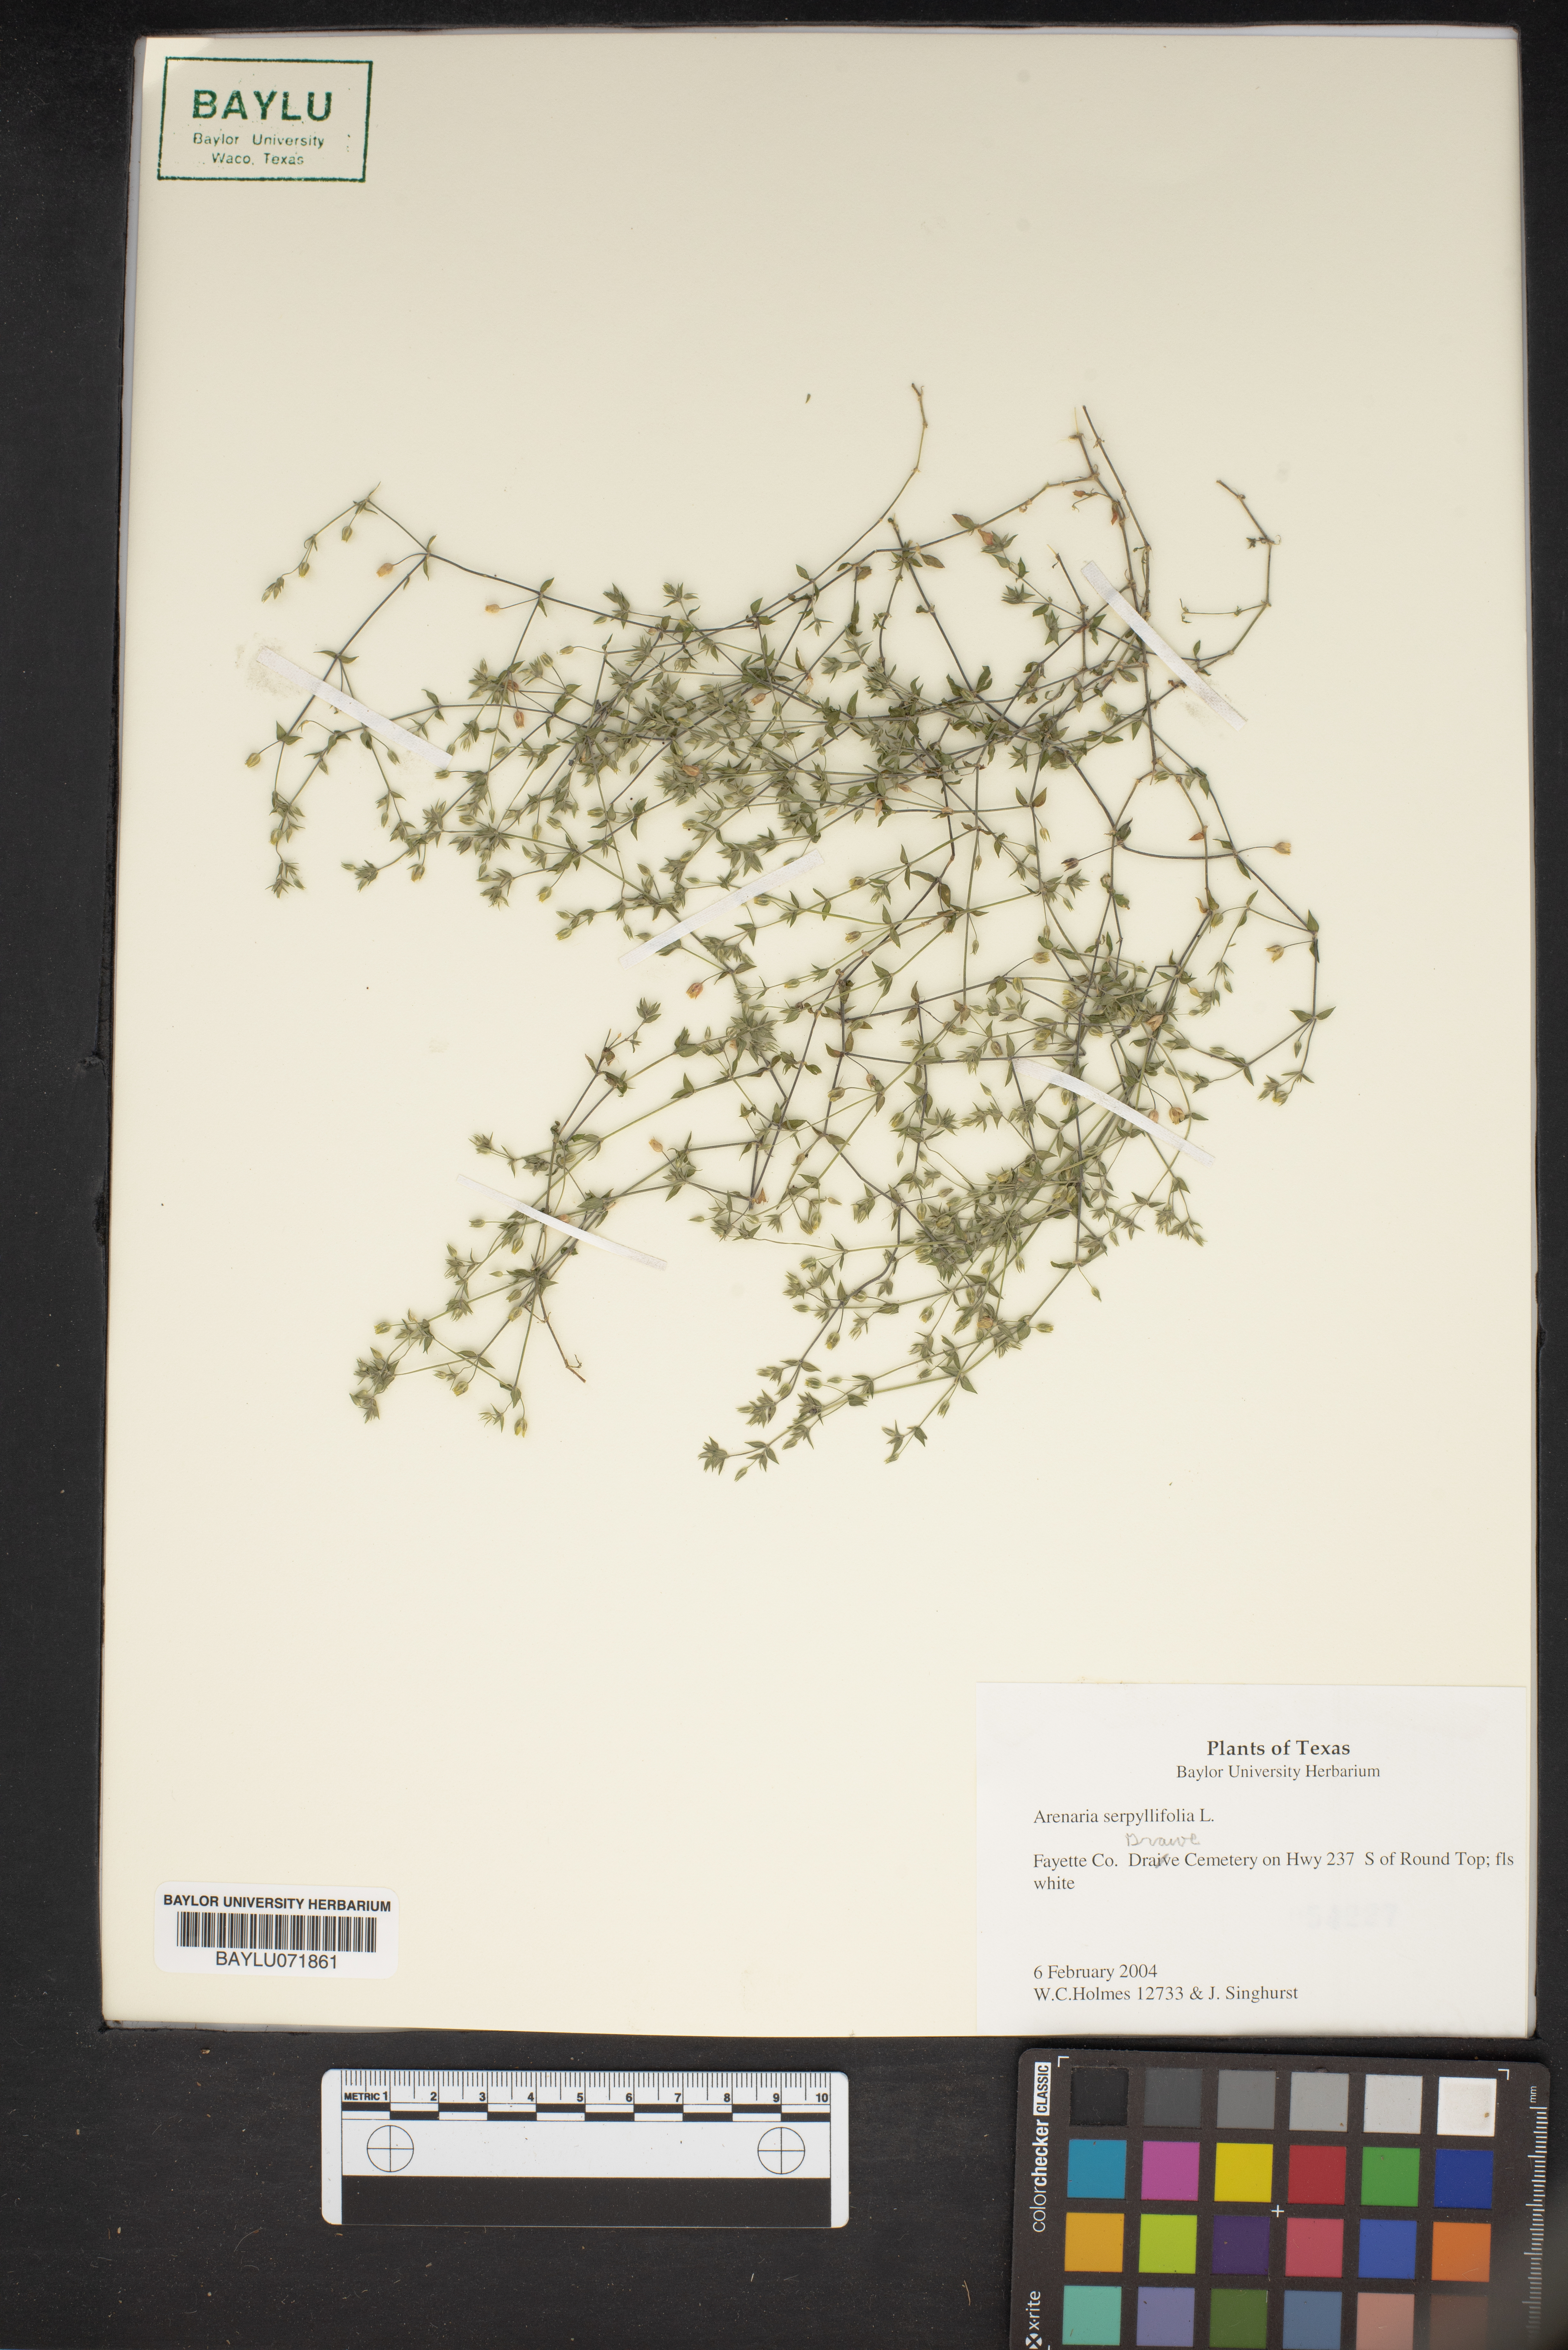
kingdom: Plantae
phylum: Tracheophyta
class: Magnoliopsida
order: Caryophyllales
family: Caryophyllaceae
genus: Arenaria
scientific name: Arenaria serpyllifolia
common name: Thyme-leaved sandwort
